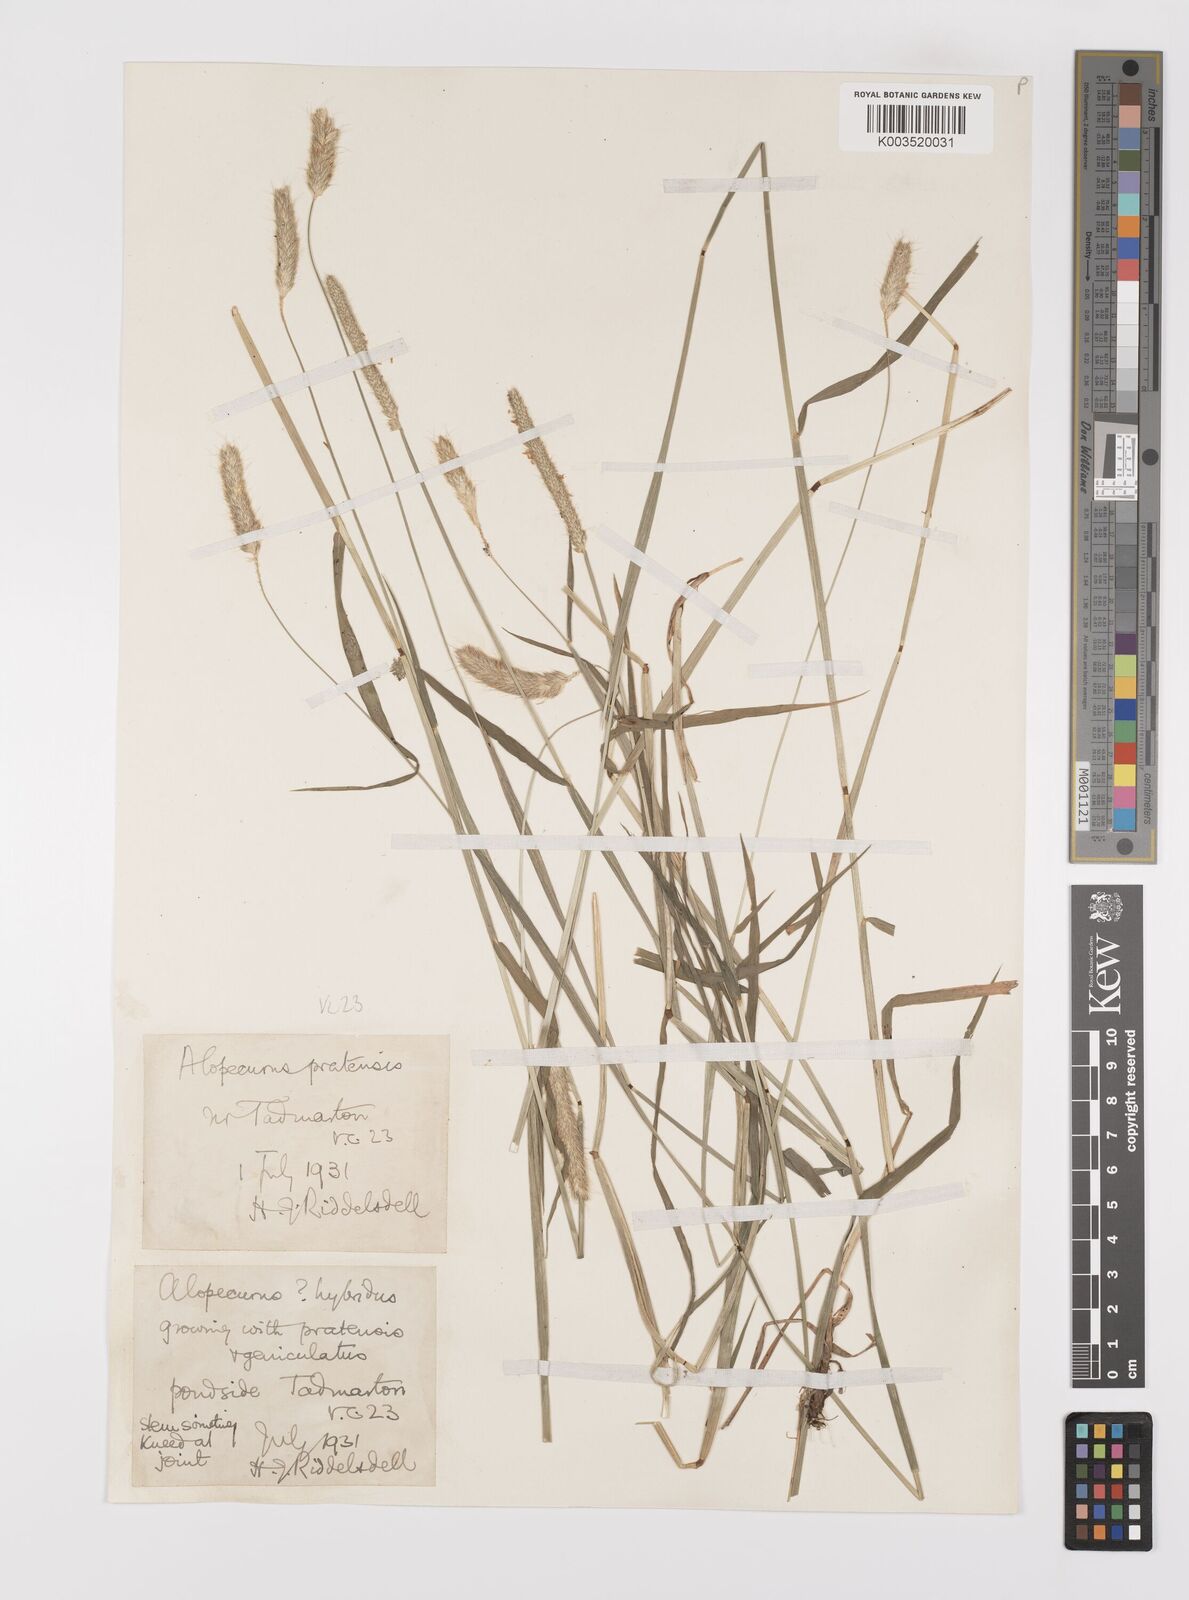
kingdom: Plantae
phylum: Tracheophyta
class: Liliopsida
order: Poales
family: Poaceae
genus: Alopecurus
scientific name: Alopecurus brachystylus
